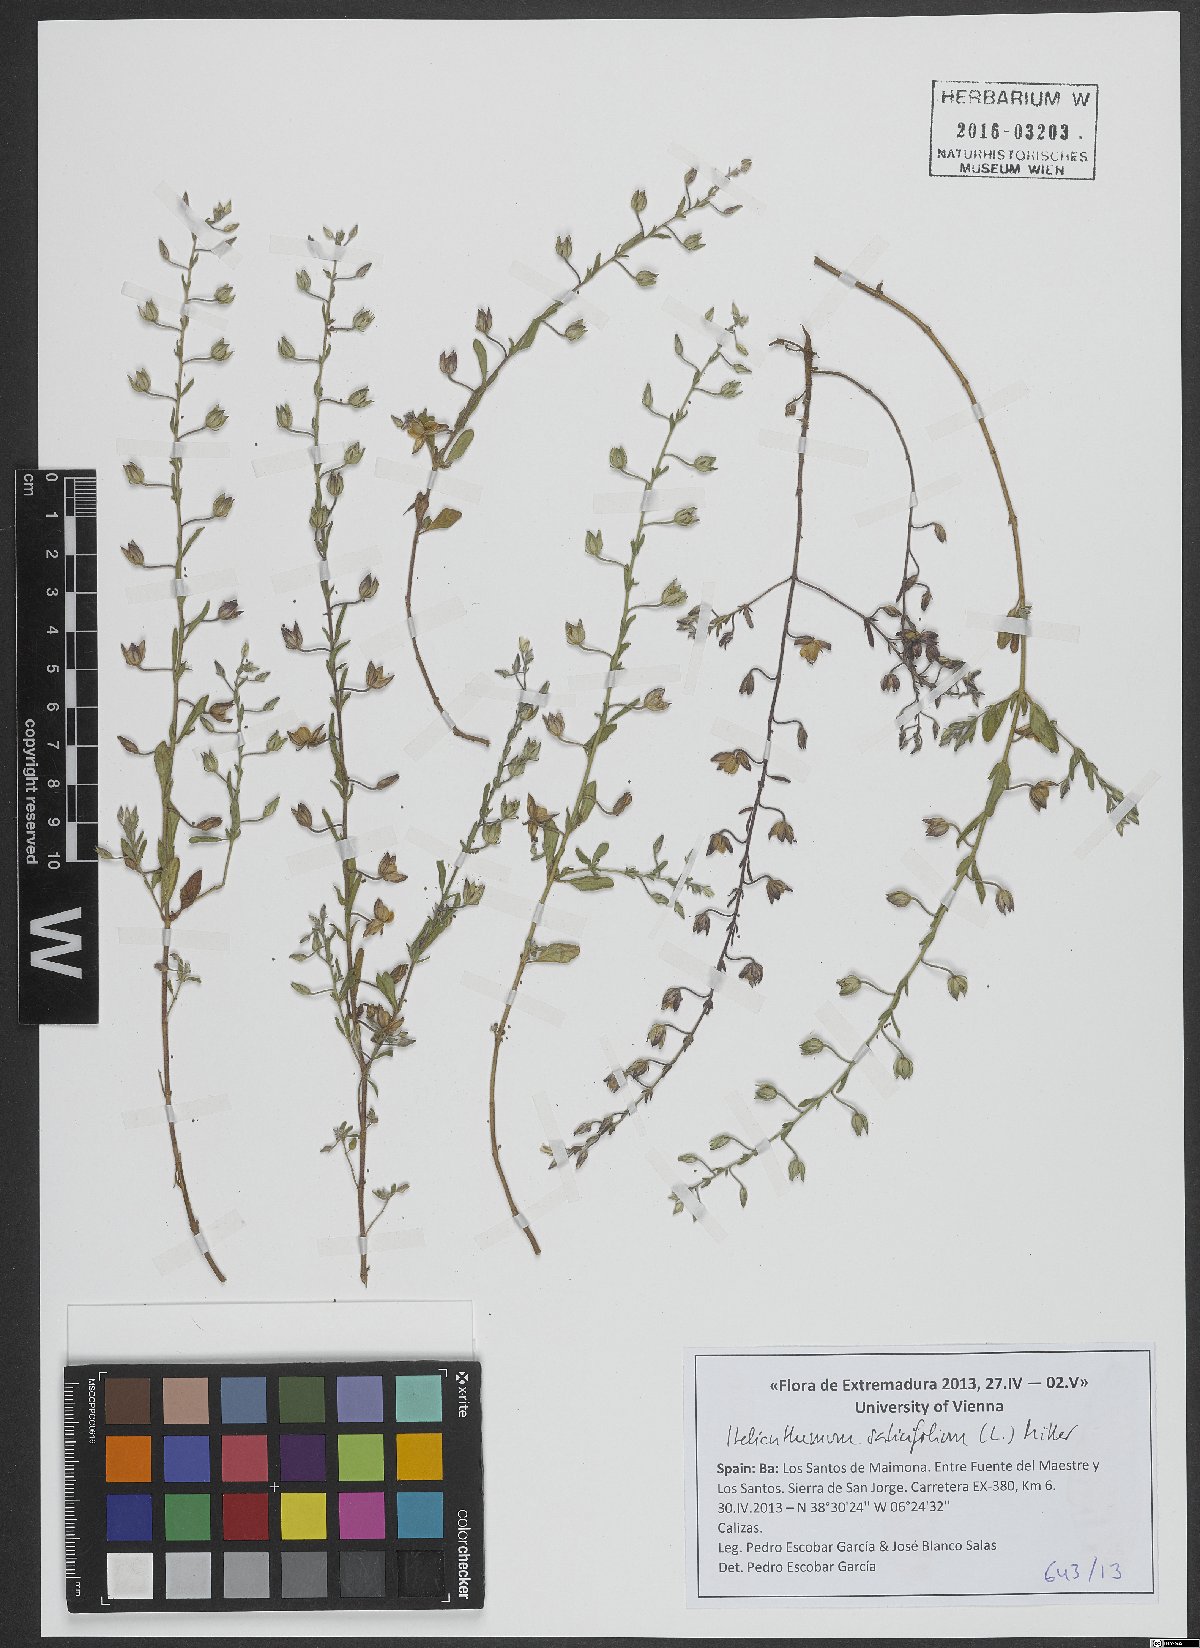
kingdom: Plantae
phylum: Tracheophyta
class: Magnoliopsida
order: Malvales
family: Cistaceae
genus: Helianthemum
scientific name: Helianthemum salicifolium
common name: Willowleaf frostweed
